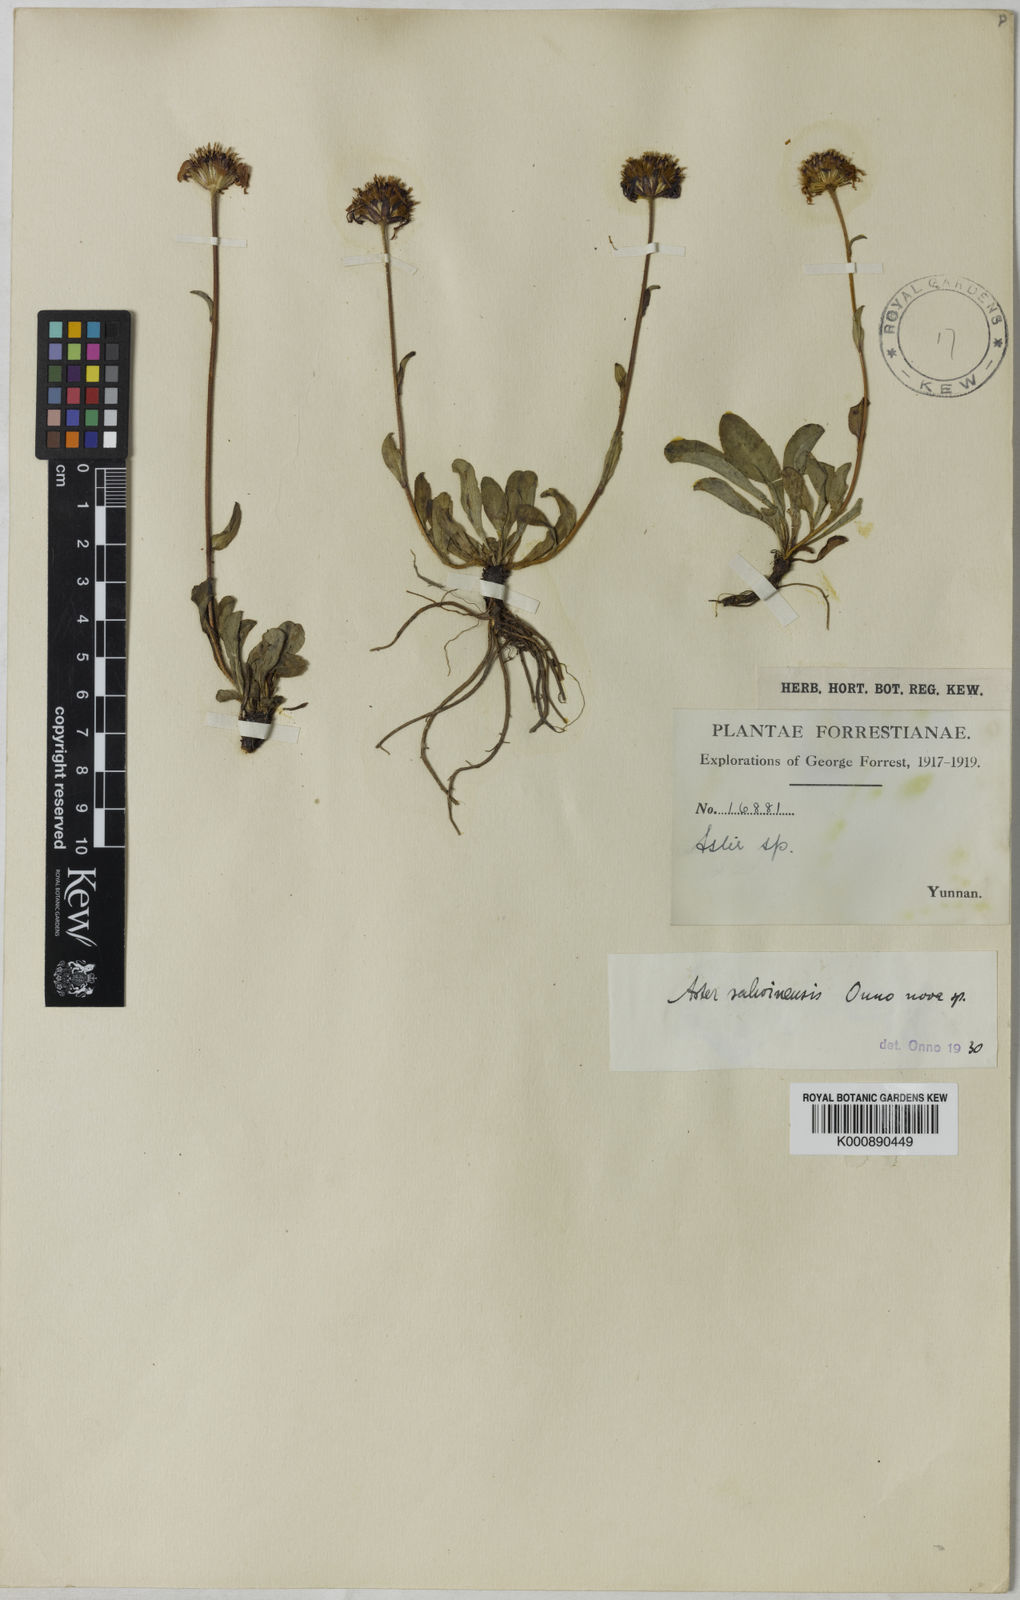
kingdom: Plantae
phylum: Tracheophyta
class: Magnoliopsida
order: Asterales
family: Asteraceae
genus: Tibetiodes
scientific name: Tibetiodes salwinensis
